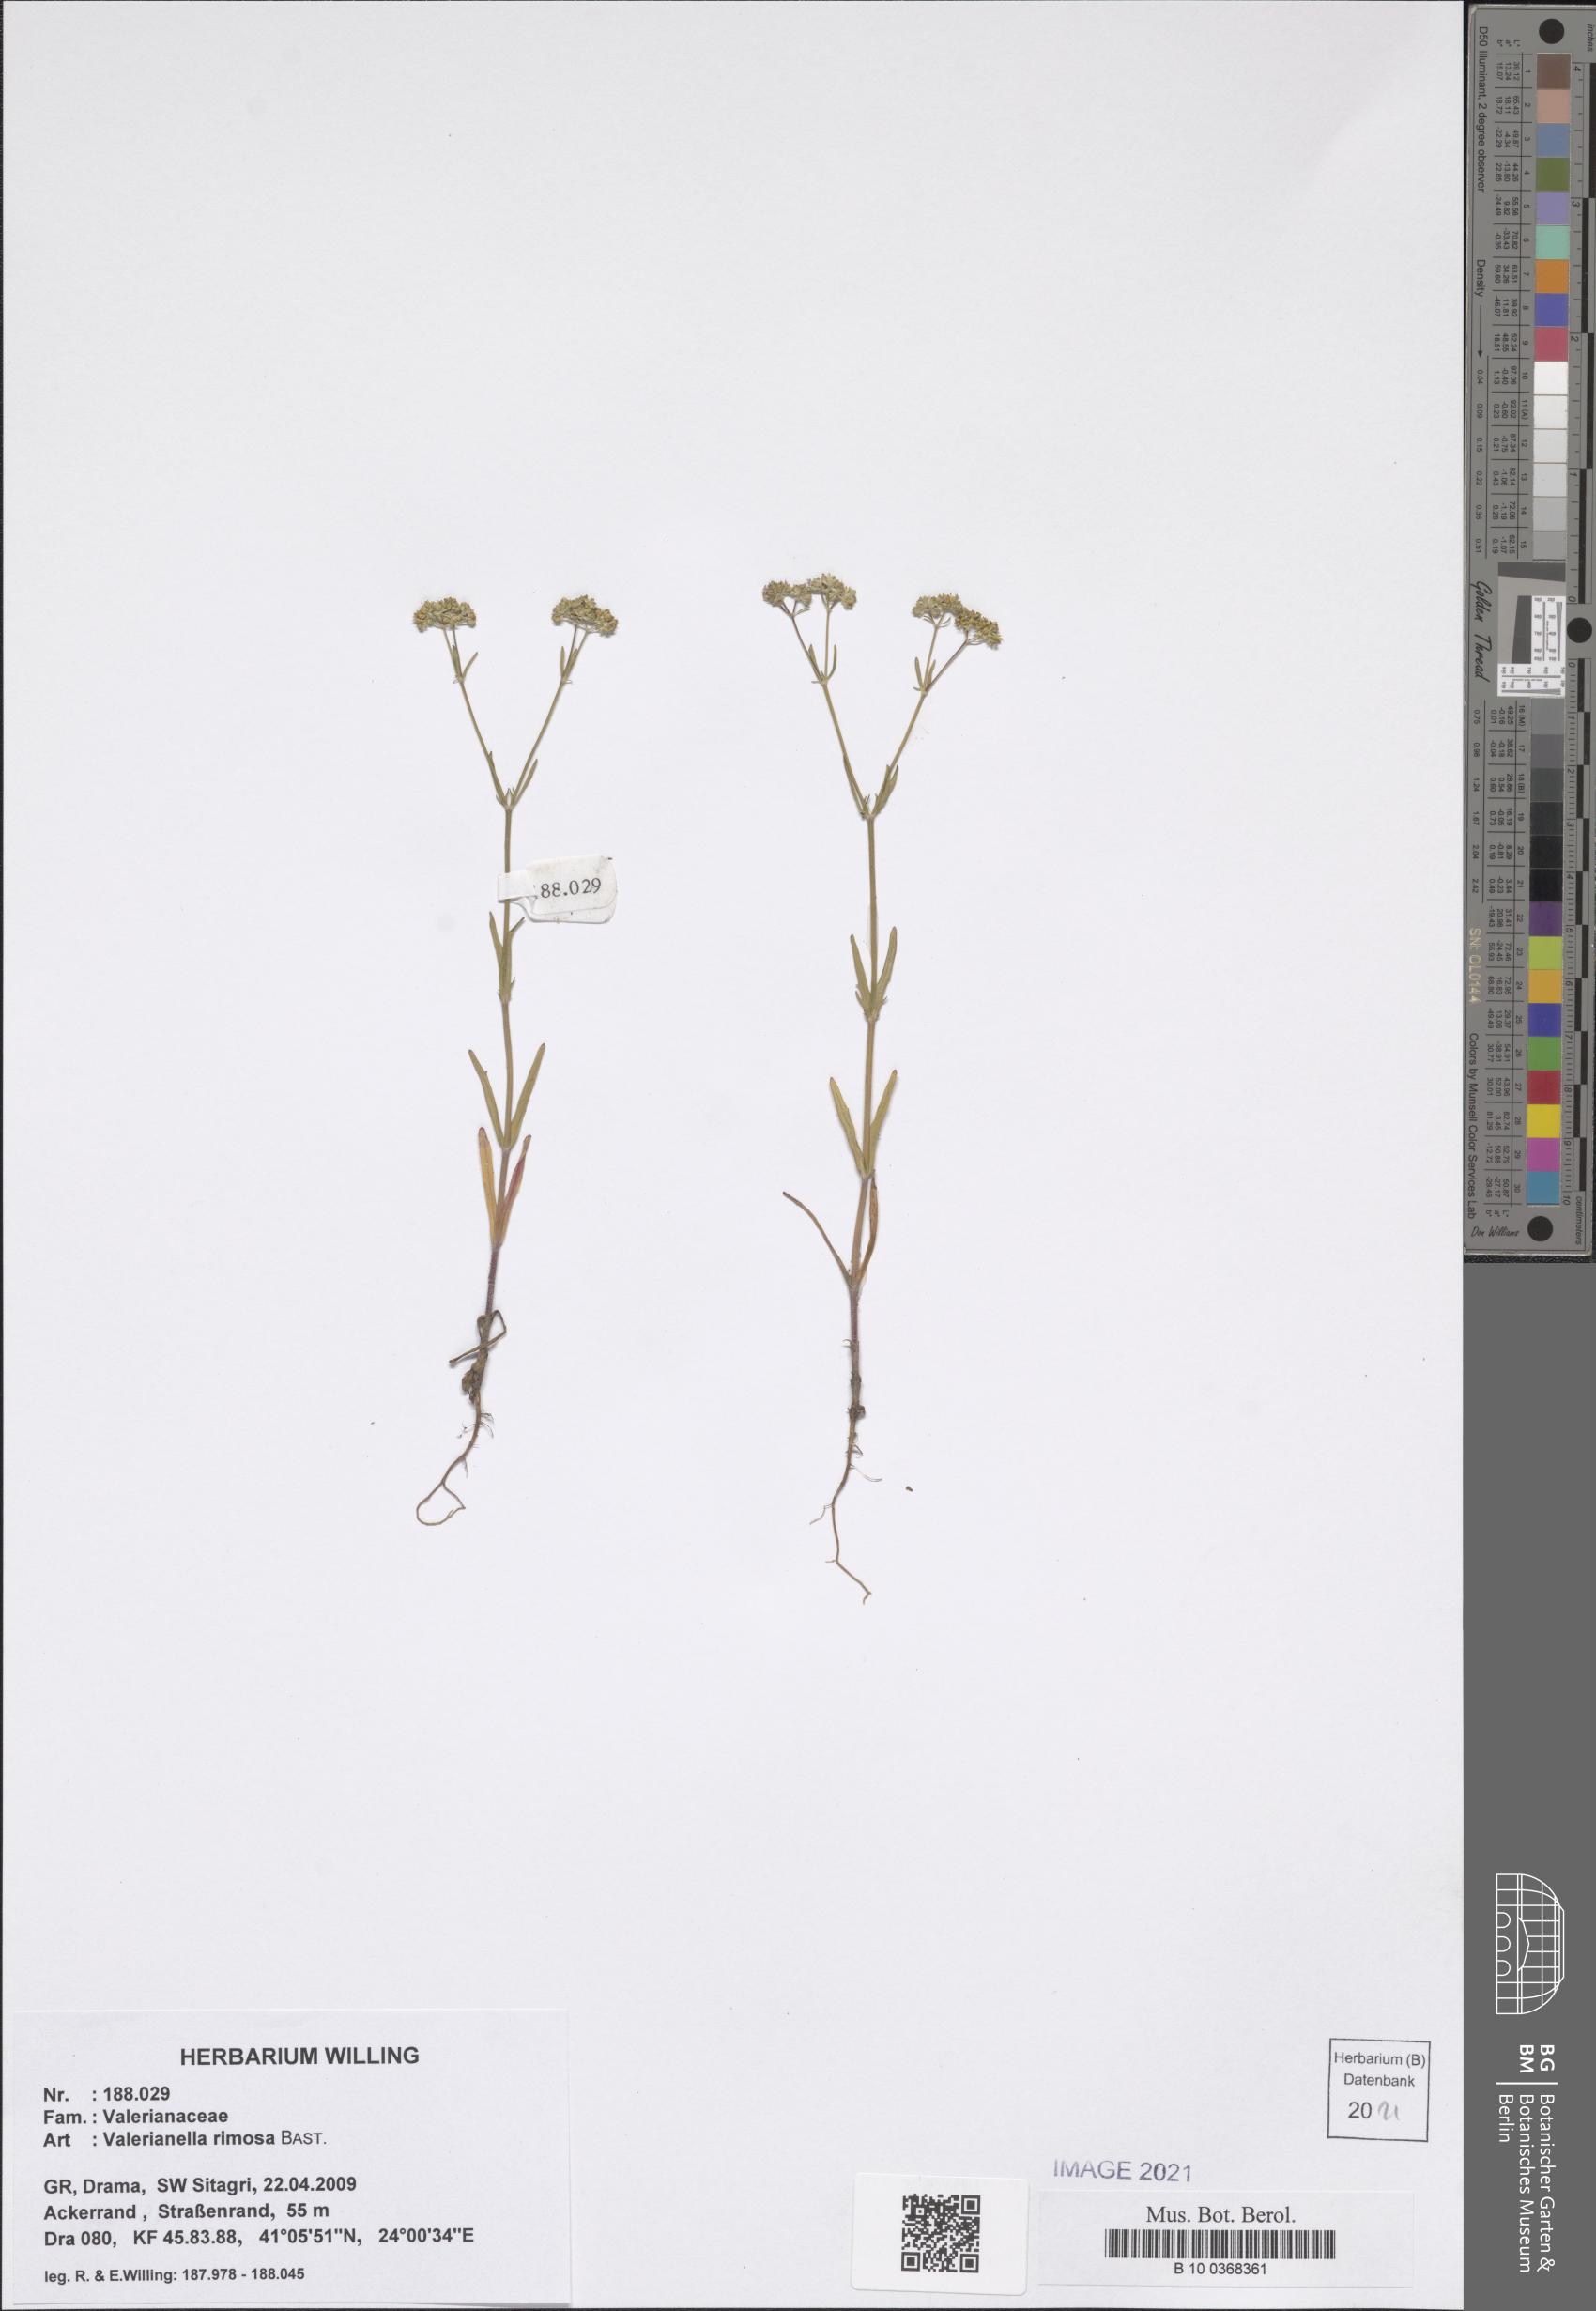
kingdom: Plantae
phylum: Tracheophyta
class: Magnoliopsida
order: Dipsacales
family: Caprifoliaceae
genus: Valerianella
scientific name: Valerianella rimosa
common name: Broad-fruited cornsalad
